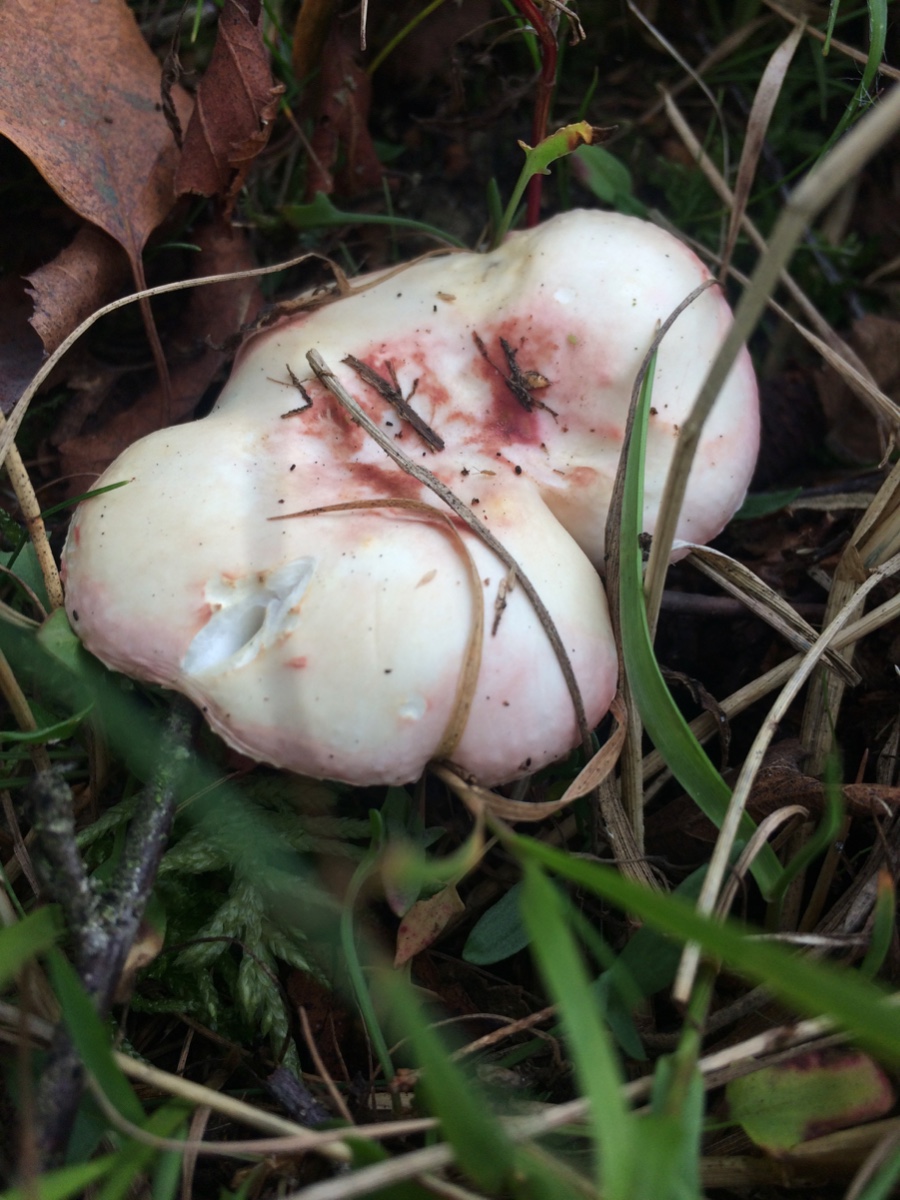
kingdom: Fungi
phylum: Basidiomycota
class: Agaricomycetes
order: Russulales
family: Russulaceae
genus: Russula
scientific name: Russula betularum
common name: bleg gift-skørhat
